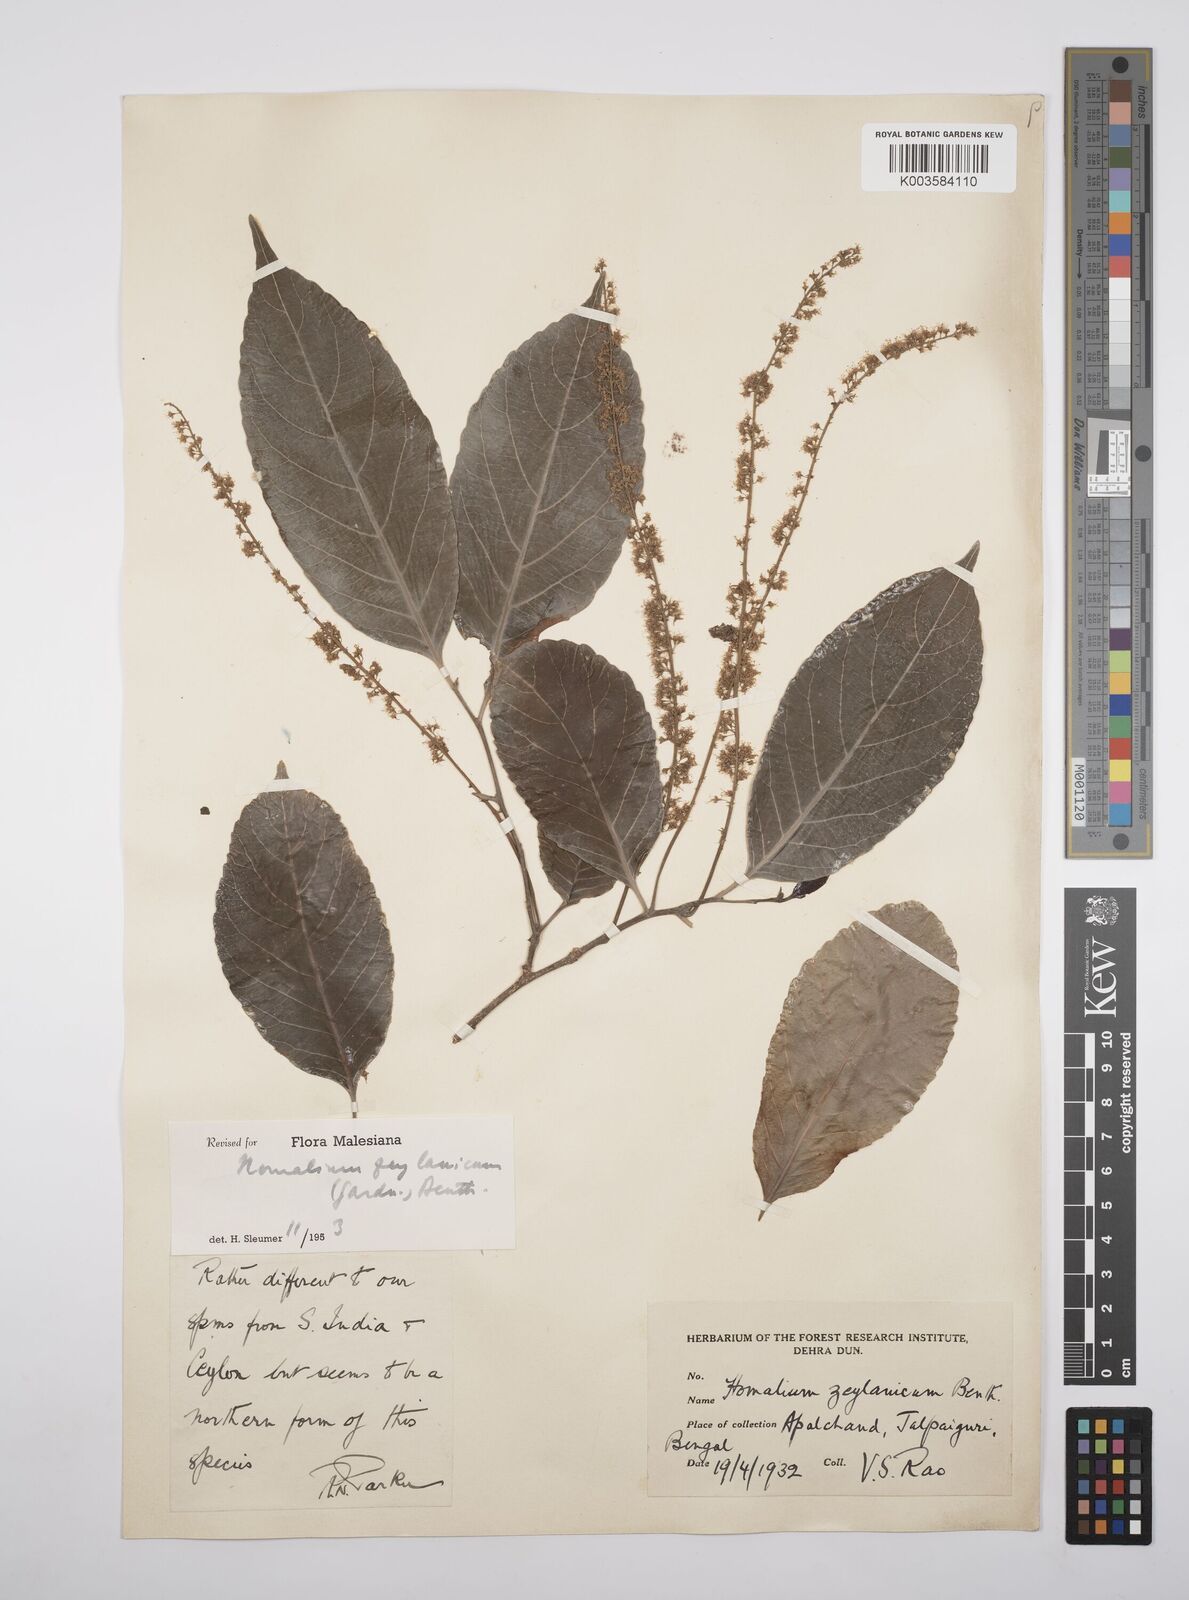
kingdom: Plantae
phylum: Tracheophyta
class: Magnoliopsida
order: Malpighiales
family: Salicaceae
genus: Homalium
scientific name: Homalium ceylanicum
